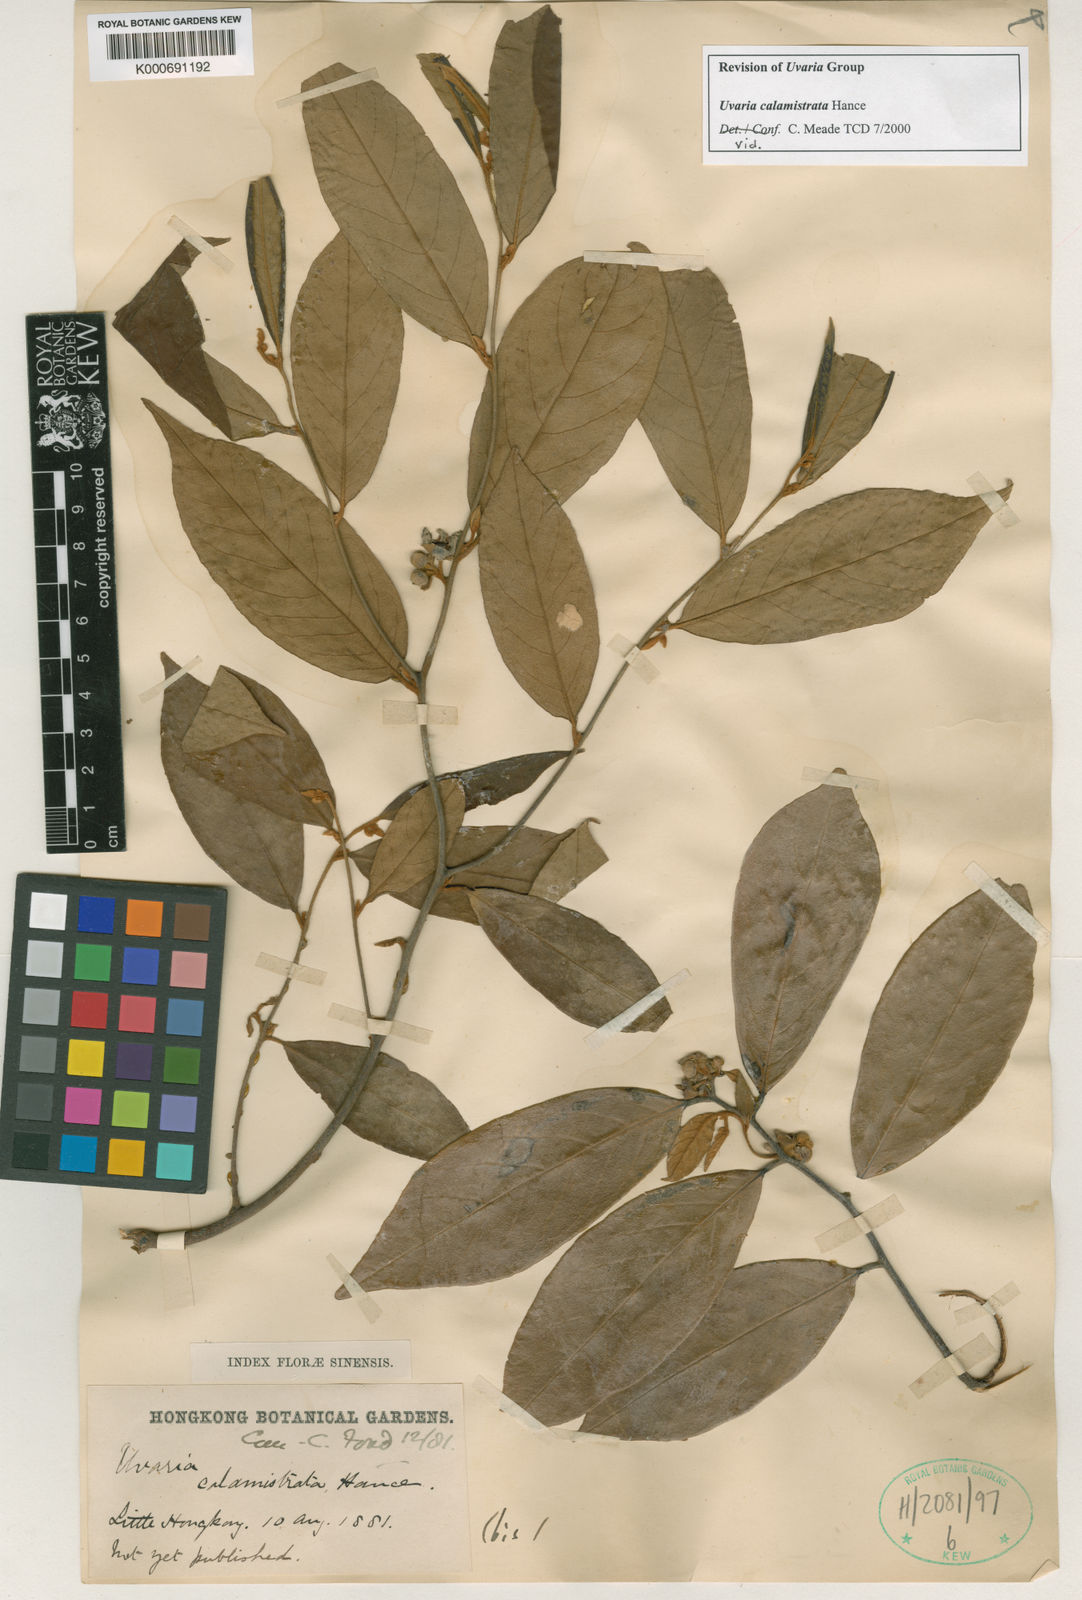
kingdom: Plantae
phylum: Tracheophyta
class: Magnoliopsida
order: Magnoliales
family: Annonaceae
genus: Uvaria
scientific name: Uvaria calamistrata
